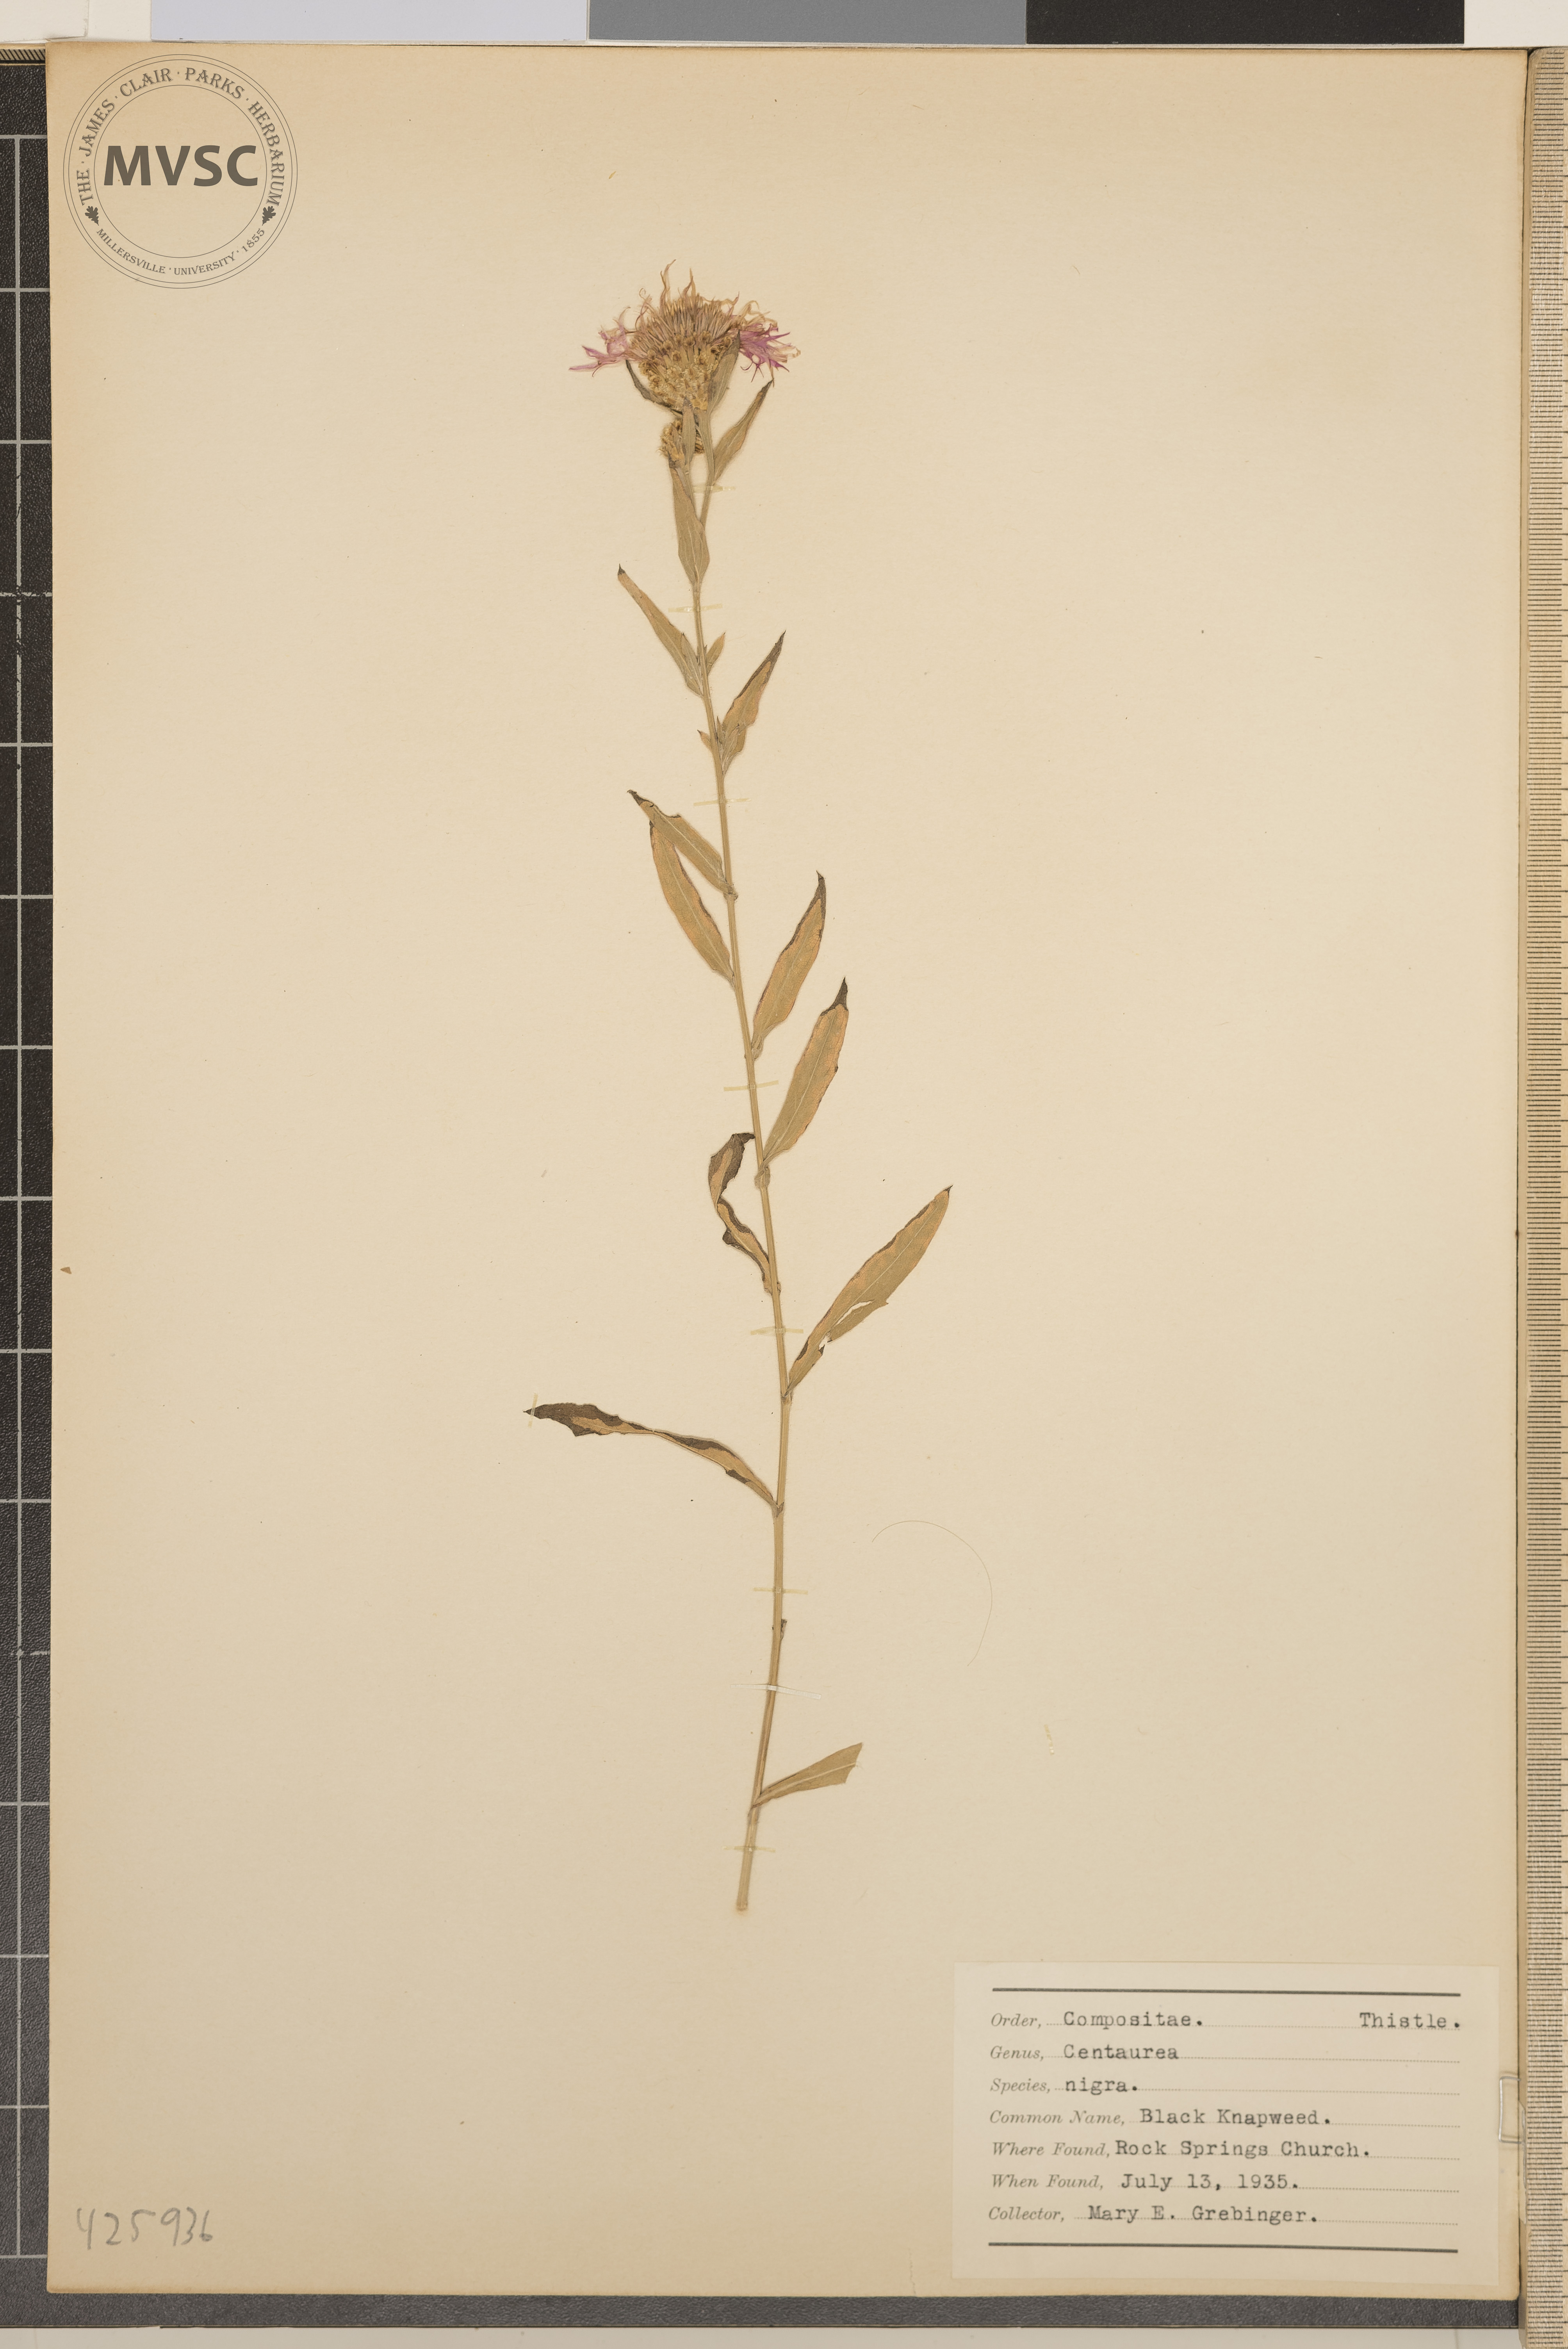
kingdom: Plantae
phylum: Tracheophyta
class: Magnoliopsida
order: Asterales
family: Asteraceae
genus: Centaurea
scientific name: Centaurea nigra
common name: Black knapweed
